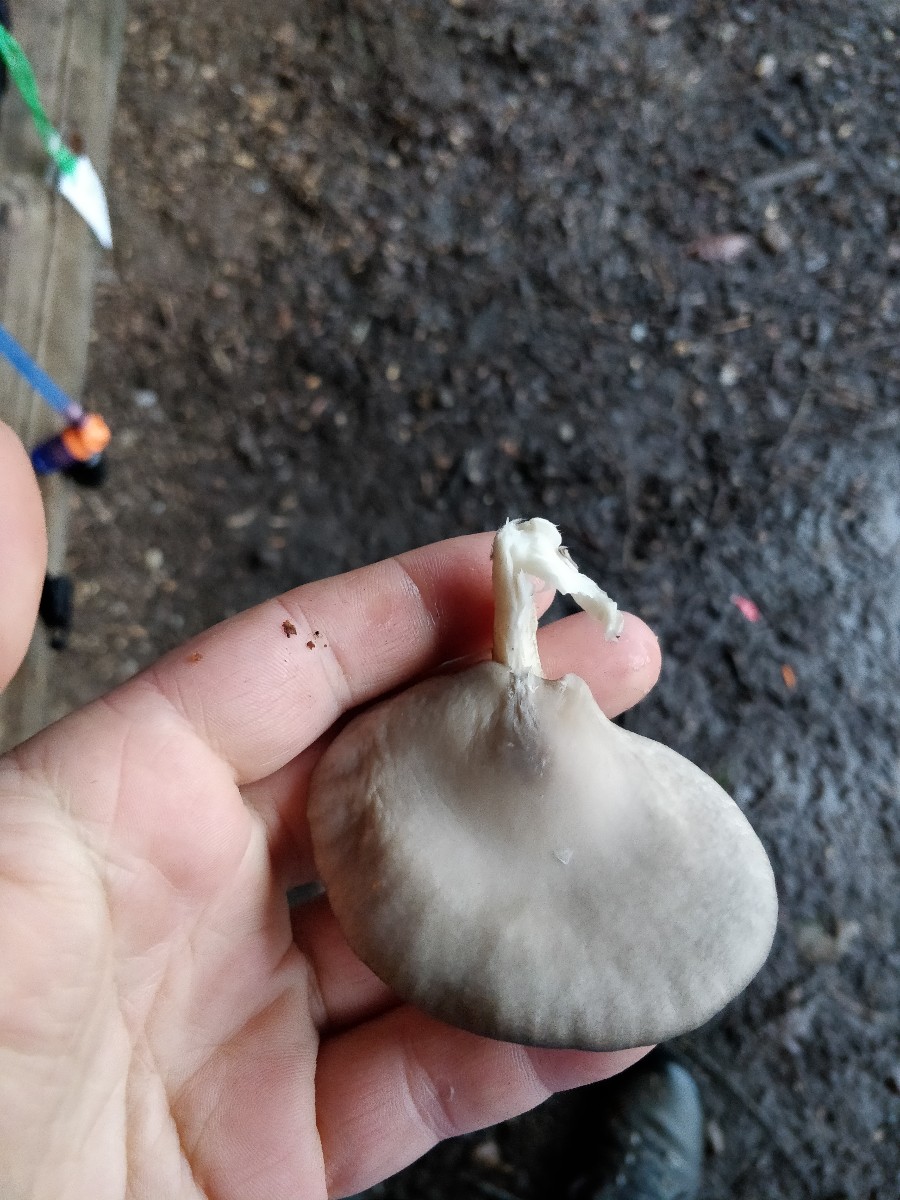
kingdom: Fungi
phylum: Basidiomycota
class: Agaricomycetes
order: Agaricales
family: Pleurotaceae
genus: Pleurotus
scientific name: Pleurotus ostreatus
